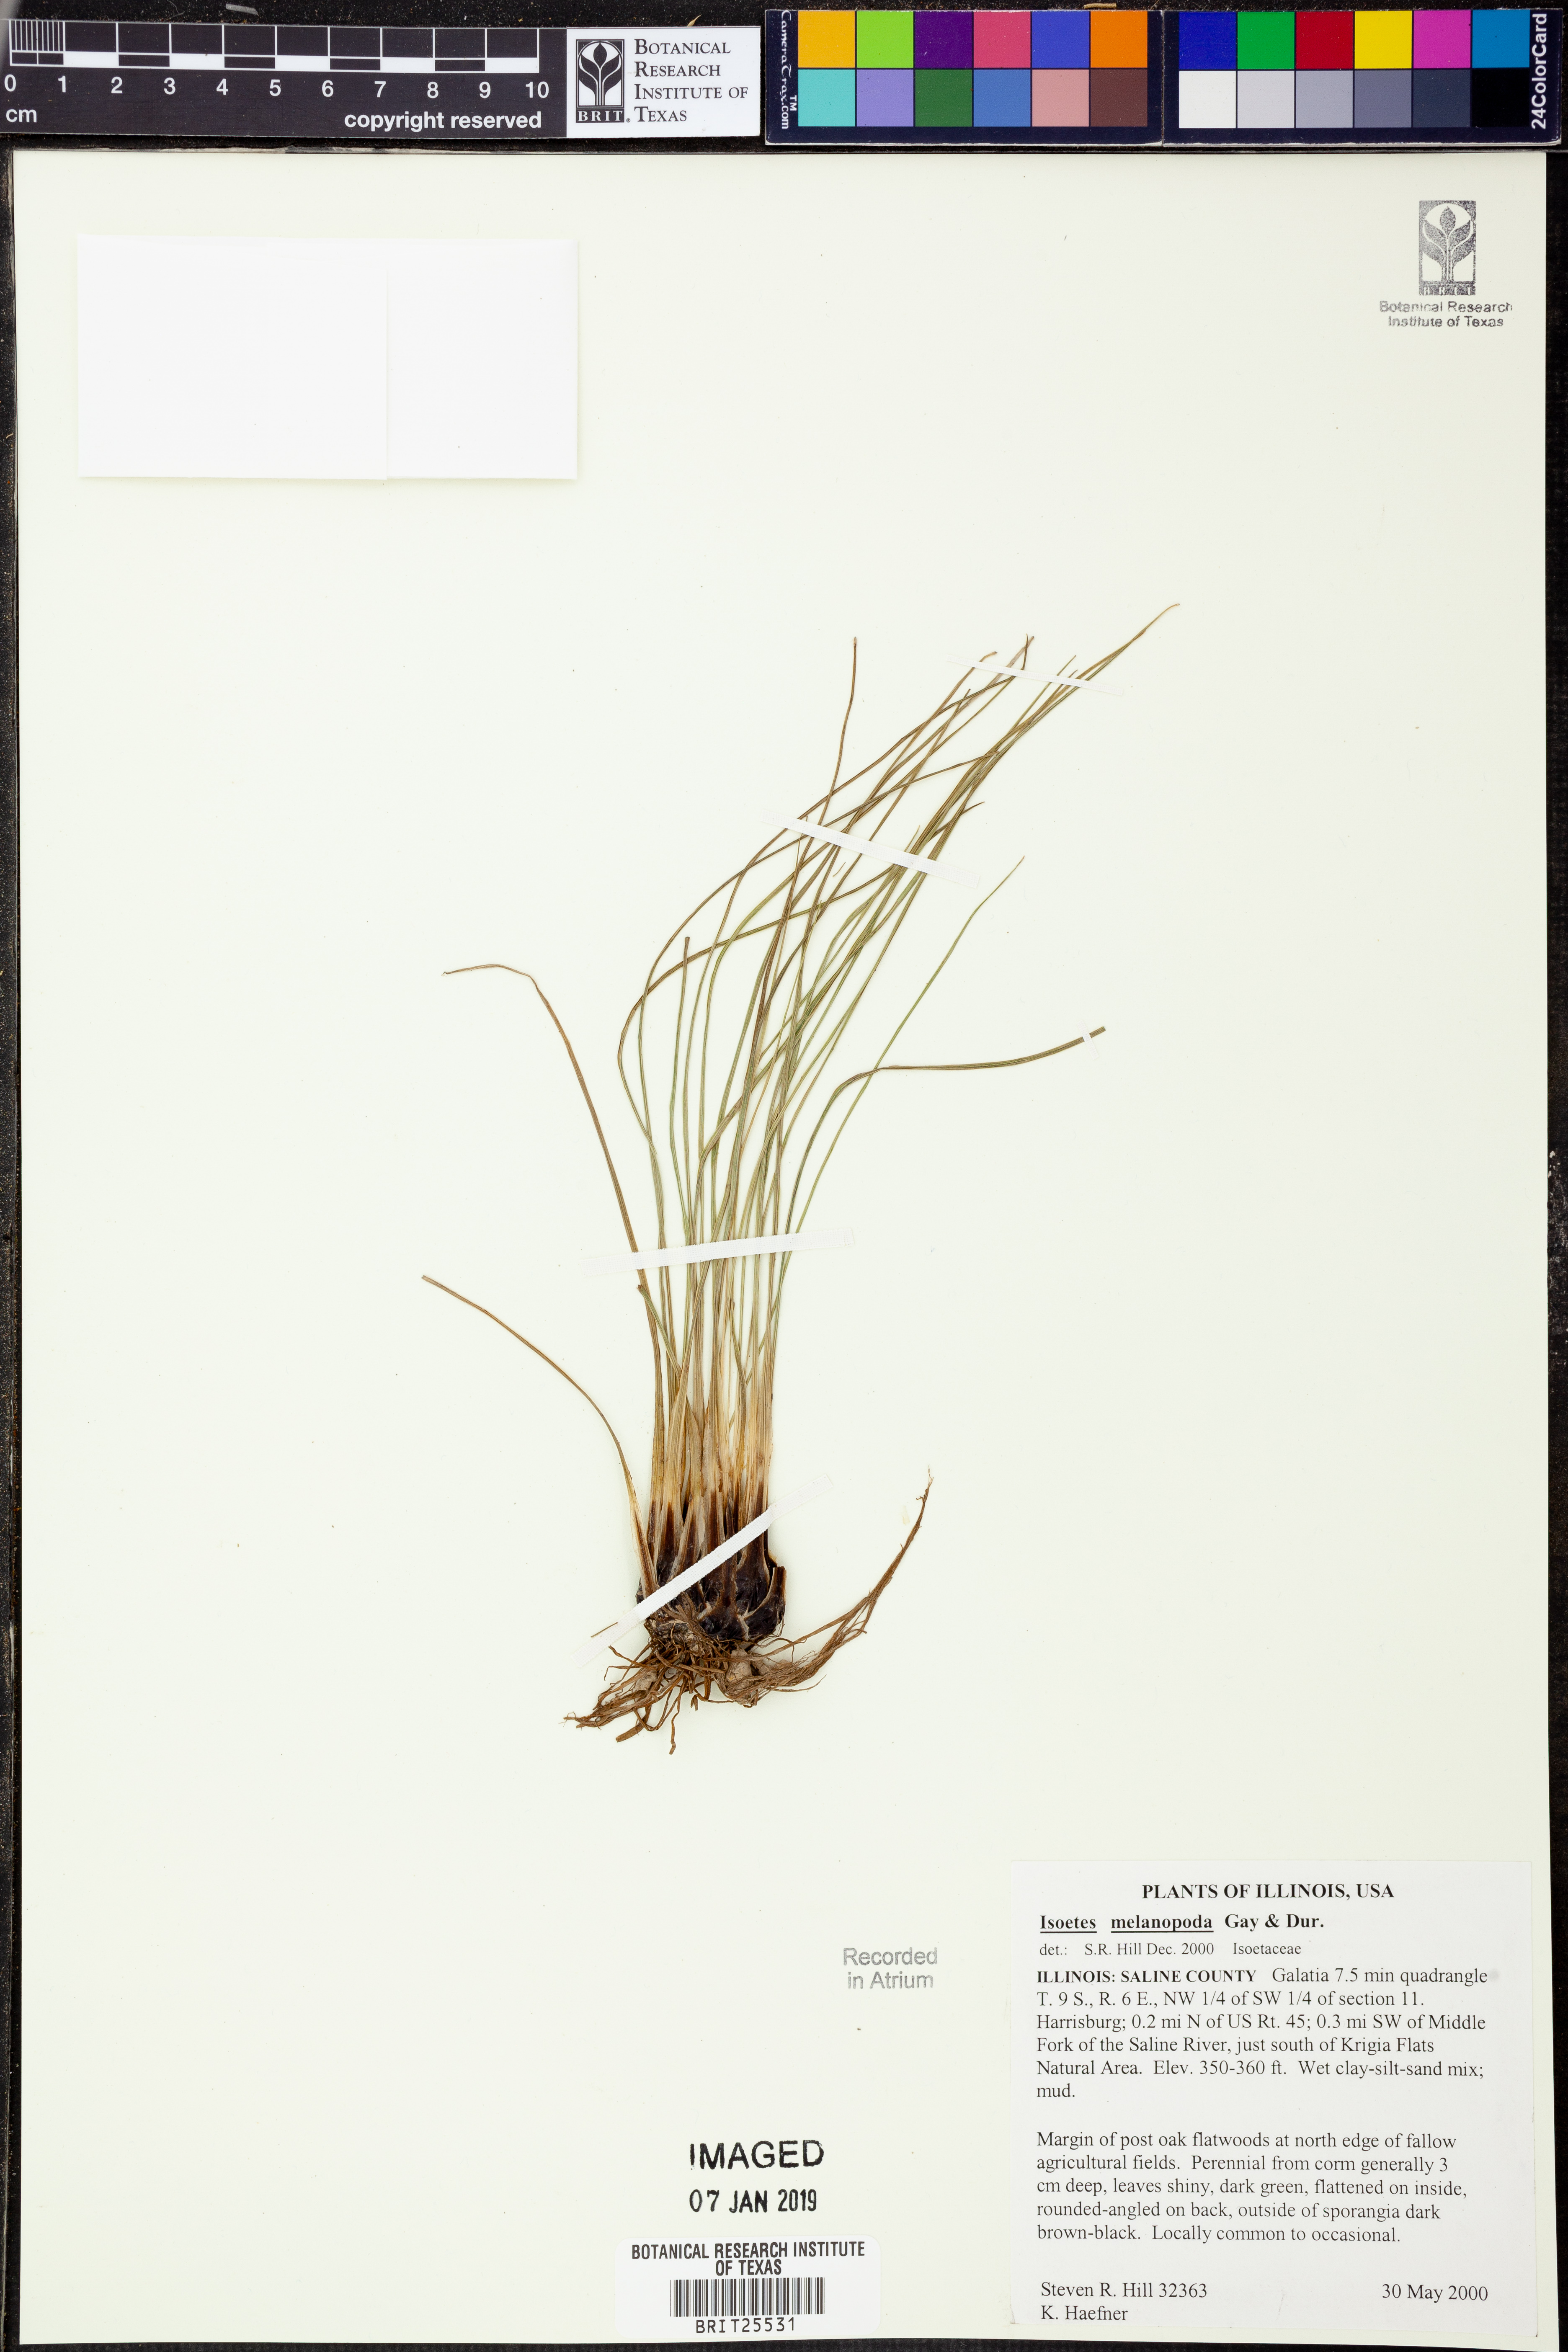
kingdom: Plantae
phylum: Tracheophyta
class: Lycopodiopsida
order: Isoetales
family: Isoetaceae
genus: Isoetes
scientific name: Isoetes melanopoda
